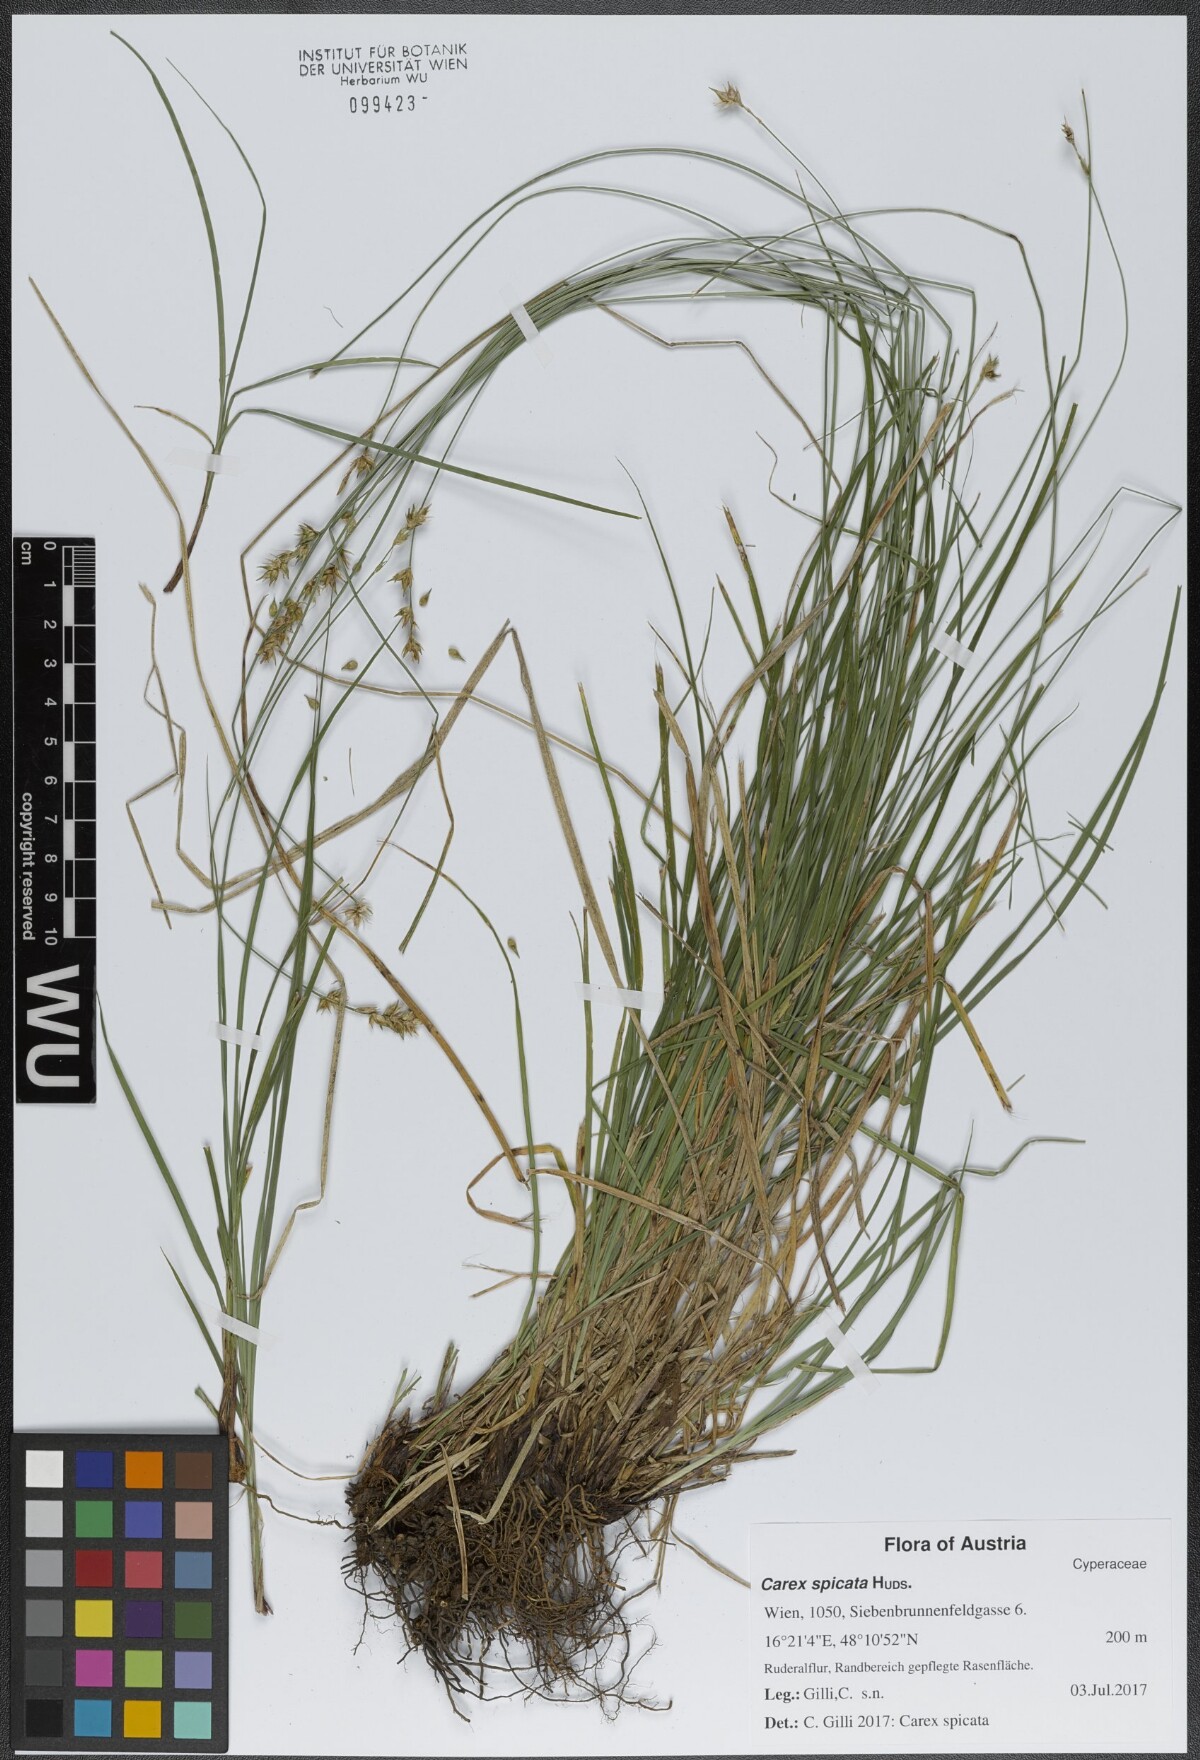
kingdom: Plantae
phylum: Tracheophyta
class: Liliopsida
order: Poales
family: Cyperaceae
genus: Carex
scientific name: Carex spicata
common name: Spiked sedge
